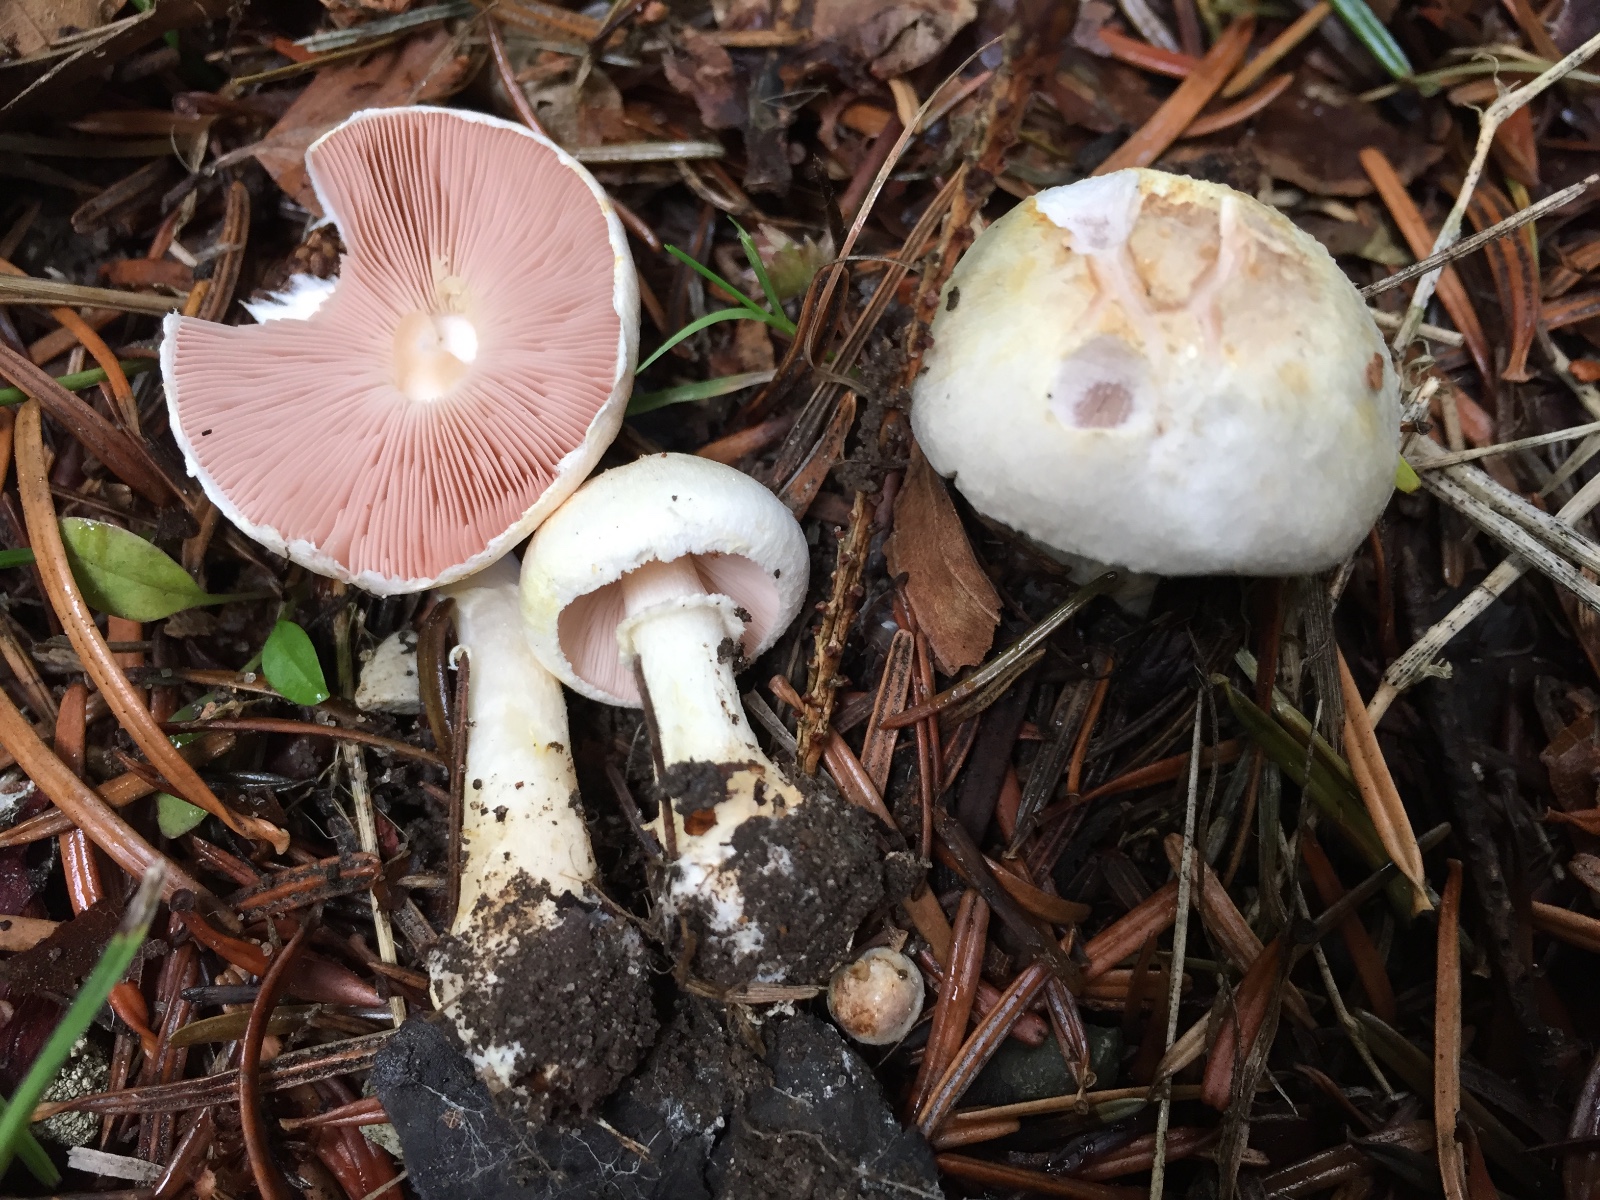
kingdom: Fungi
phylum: Basidiomycota
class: Agaricomycetes
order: Agaricales
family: Agaricaceae
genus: Agaricus
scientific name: Agaricus dulcidulus
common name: blegrød champignon
